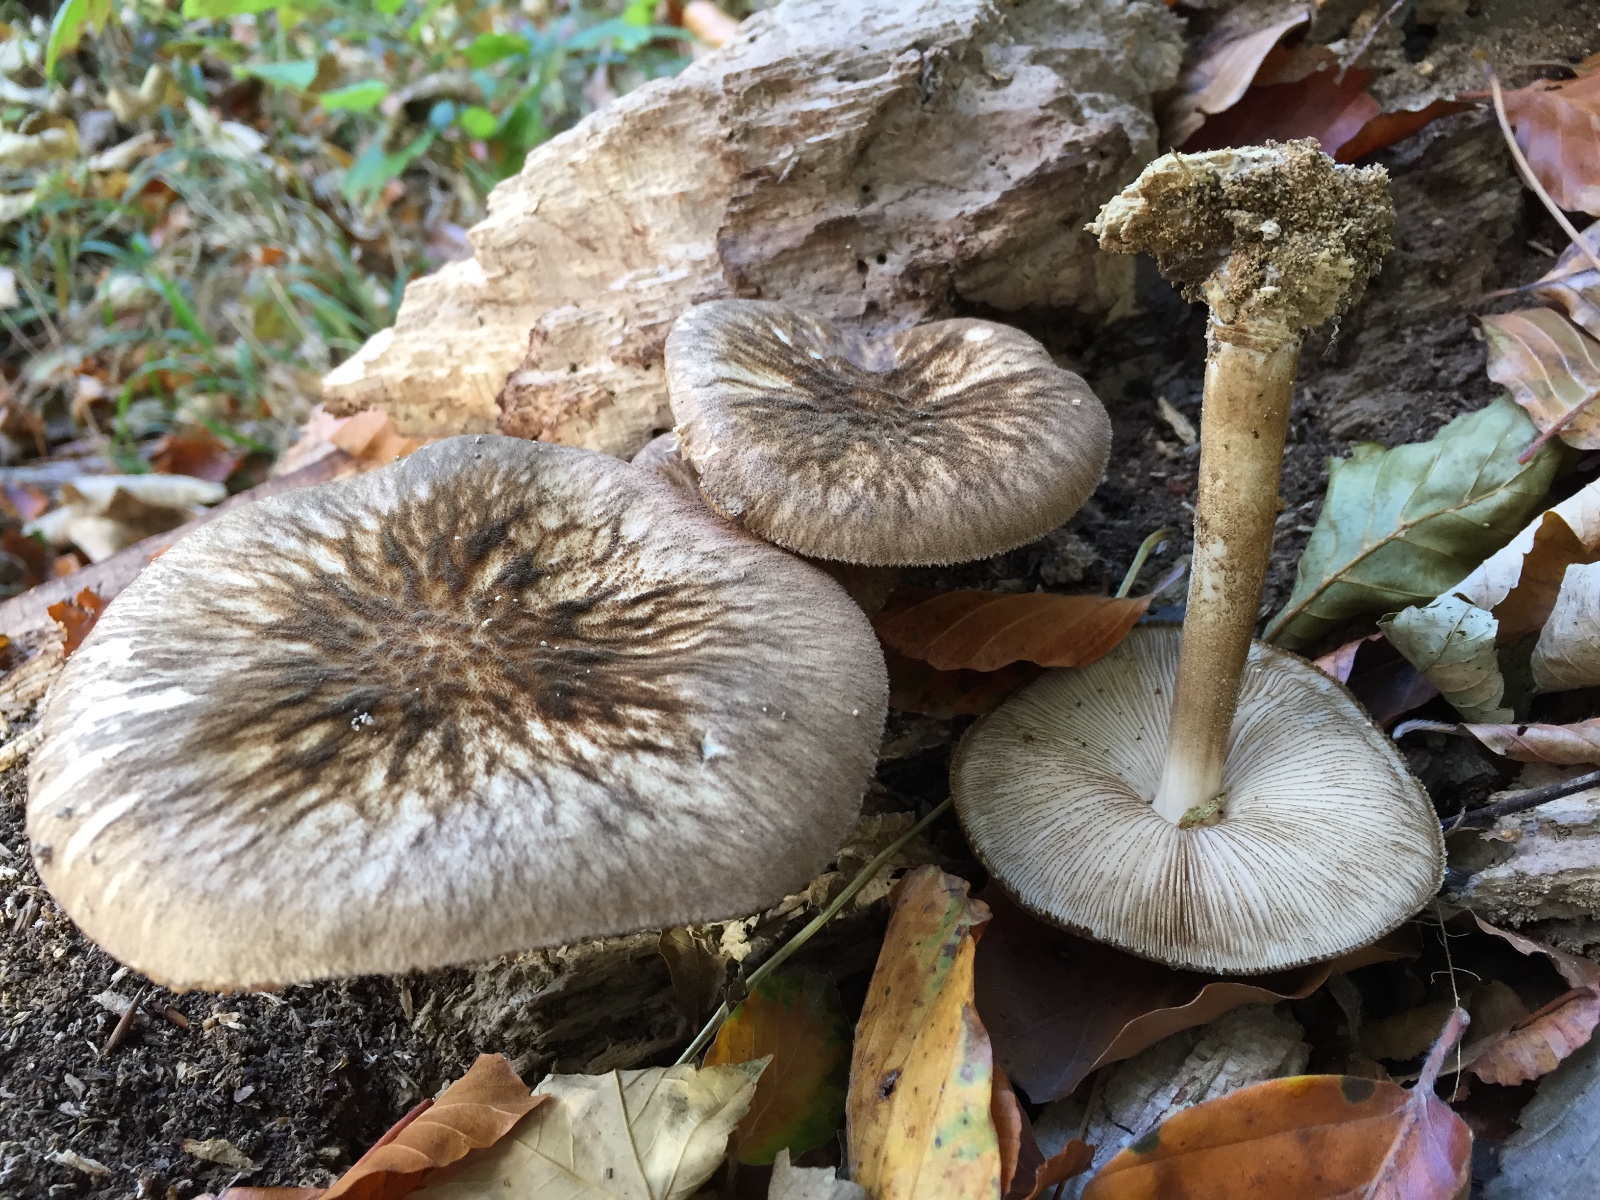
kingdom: Fungi
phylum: Basidiomycota
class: Agaricomycetes
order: Agaricales
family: Pluteaceae
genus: Pluteus
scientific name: Pluteus umbrosus
